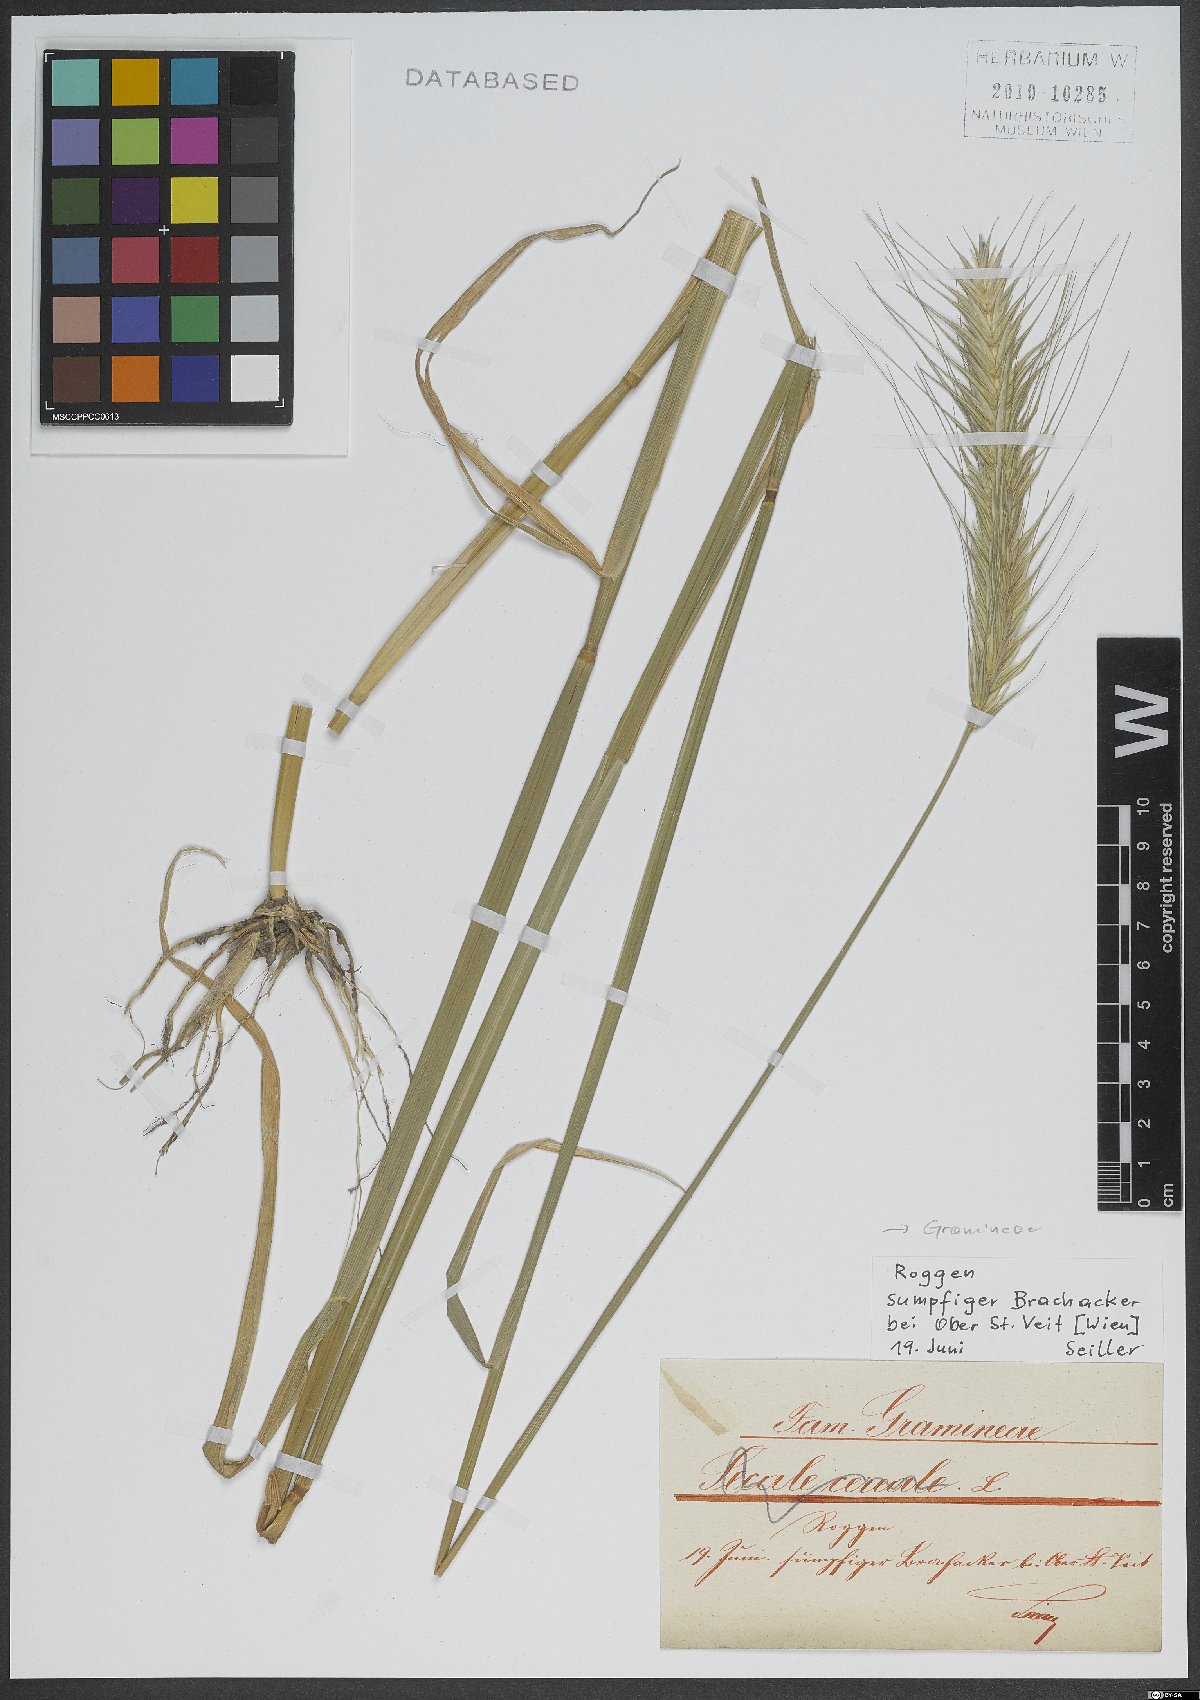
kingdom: Plantae
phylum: Tracheophyta
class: Liliopsida
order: Poales
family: Poaceae
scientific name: Poaceae
